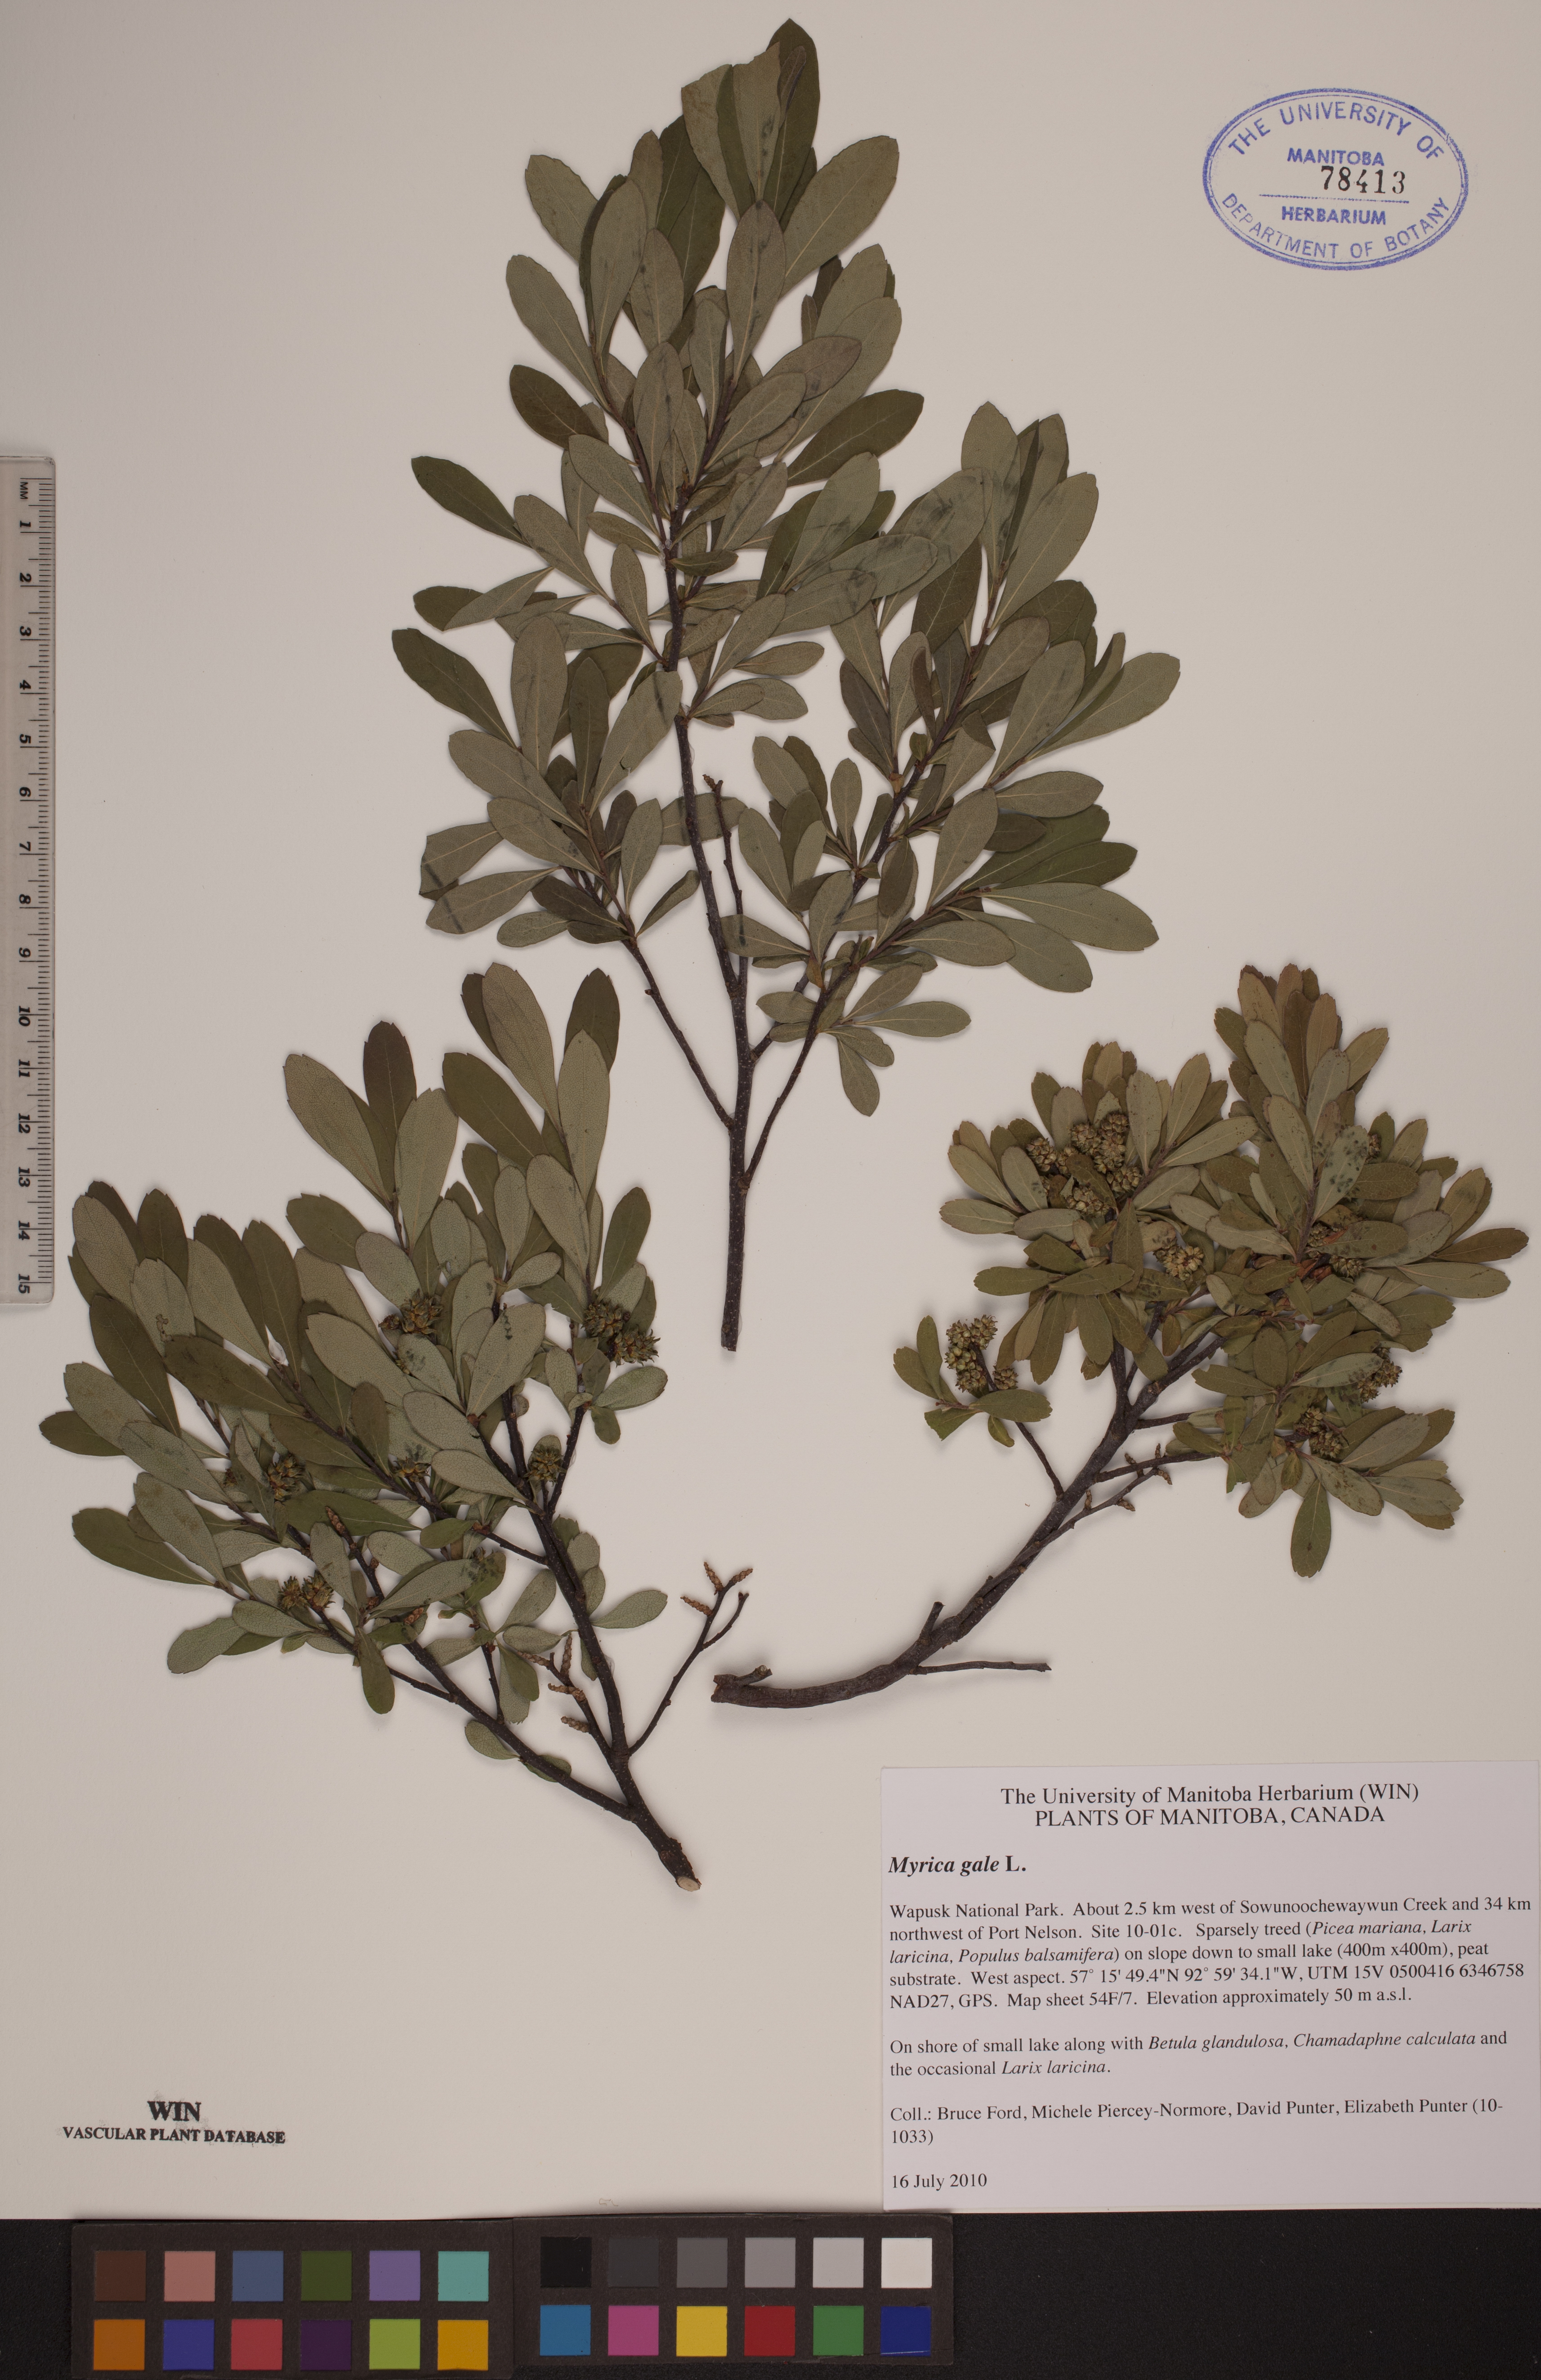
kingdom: Plantae
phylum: Tracheophyta
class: Magnoliopsida
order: Fagales
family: Myricaceae
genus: Myrica
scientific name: Myrica gale
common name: Sweet gale
